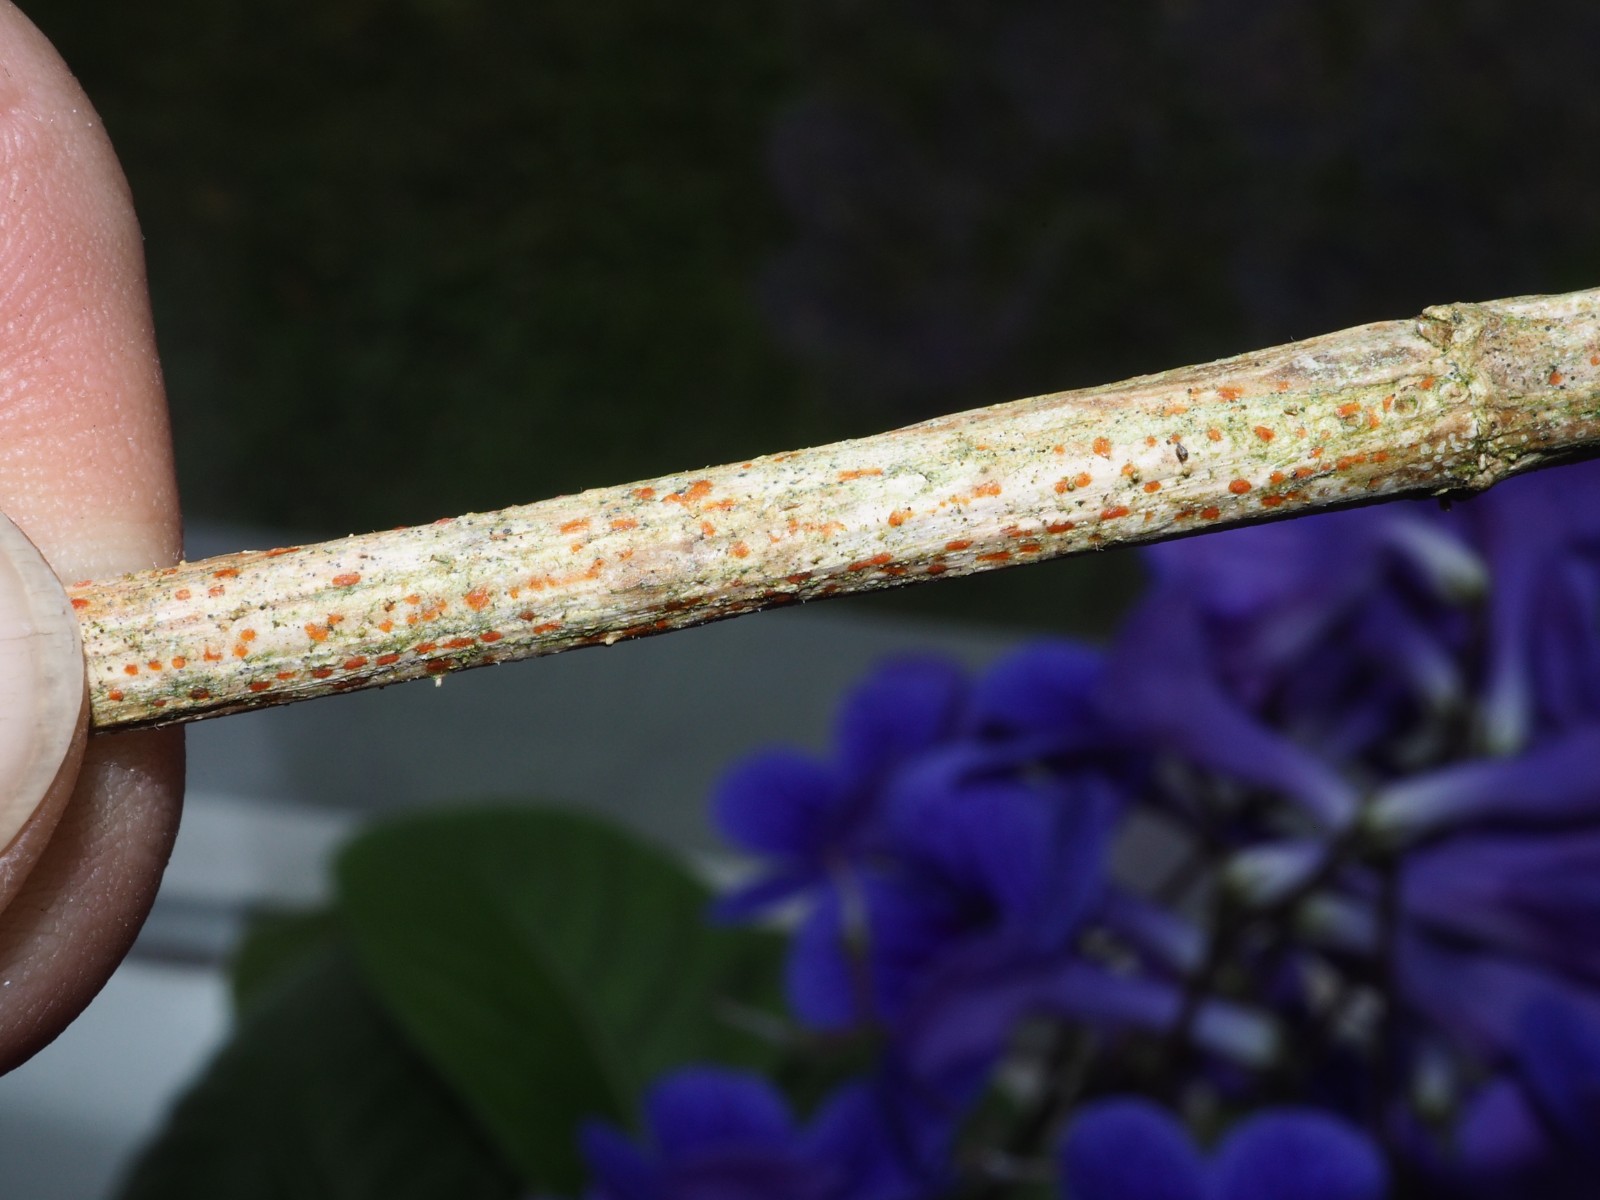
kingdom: Fungi
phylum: Ascomycota
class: Leotiomycetes
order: Helotiales
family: Calloriaceae
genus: Calloria
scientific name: Calloria urticae
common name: nælde-orangeskive
